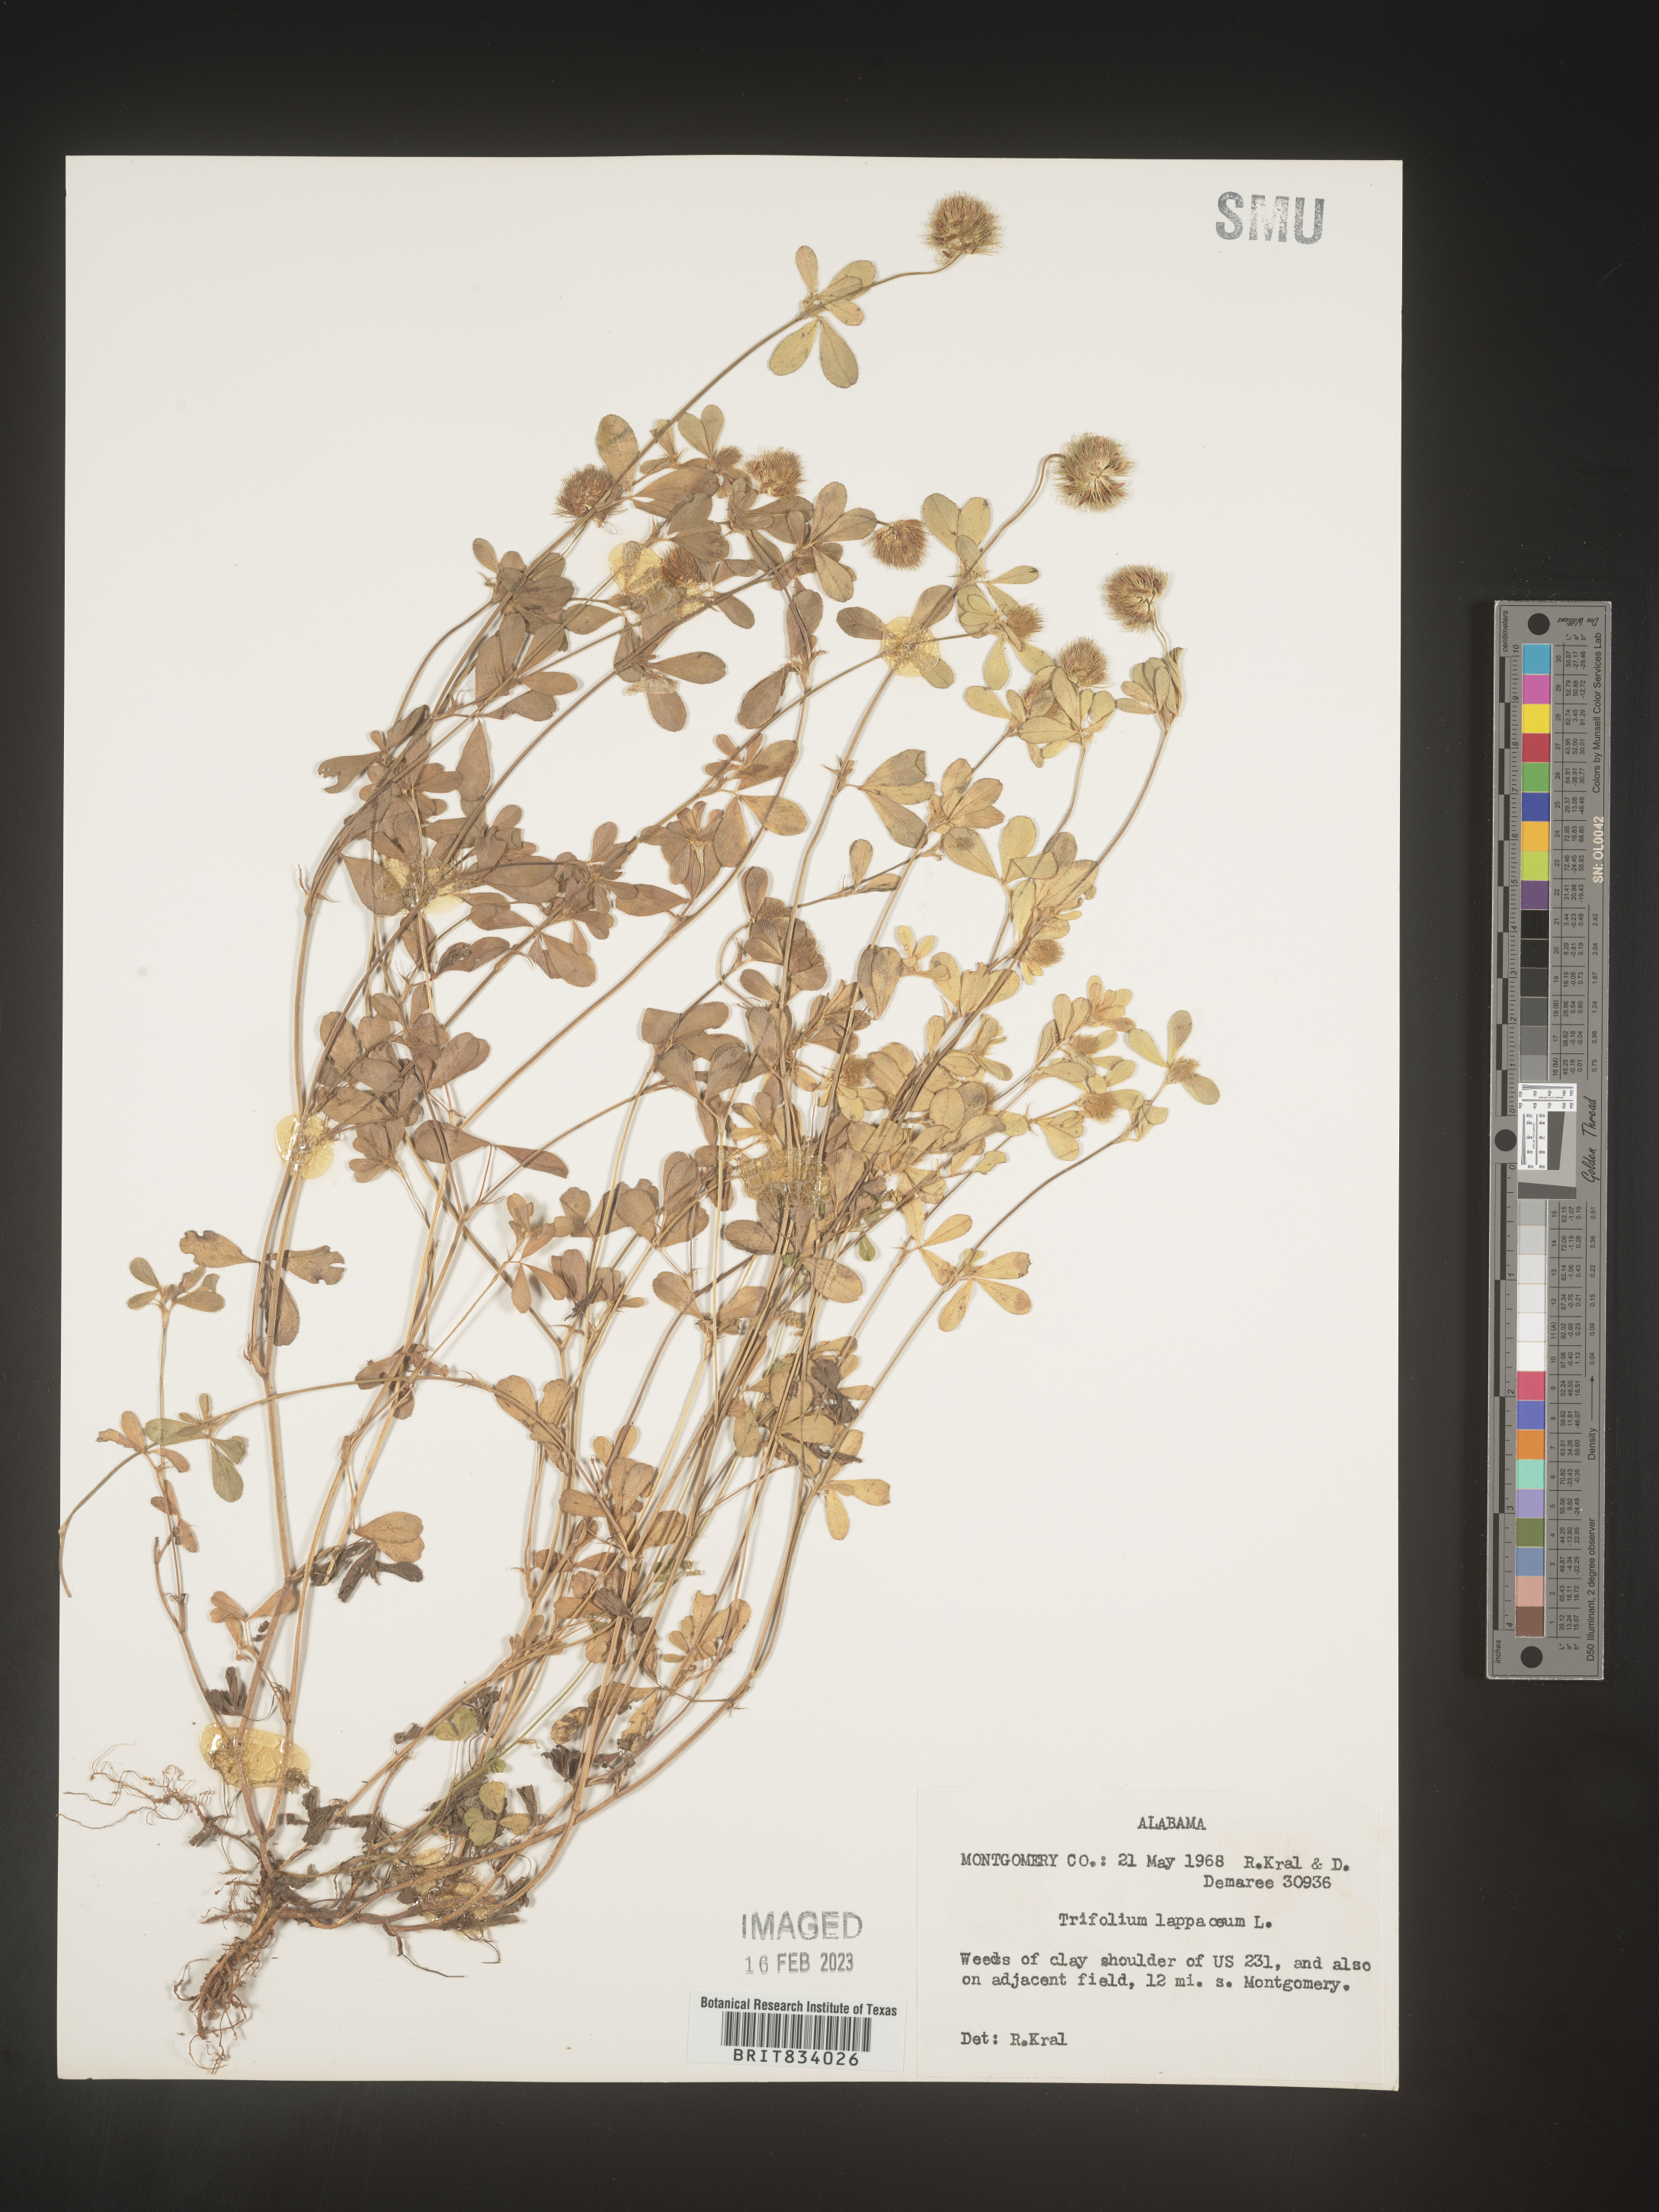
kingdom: Plantae
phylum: Tracheophyta
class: Magnoliopsida
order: Fabales
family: Fabaceae
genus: Trifolium
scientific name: Trifolium
